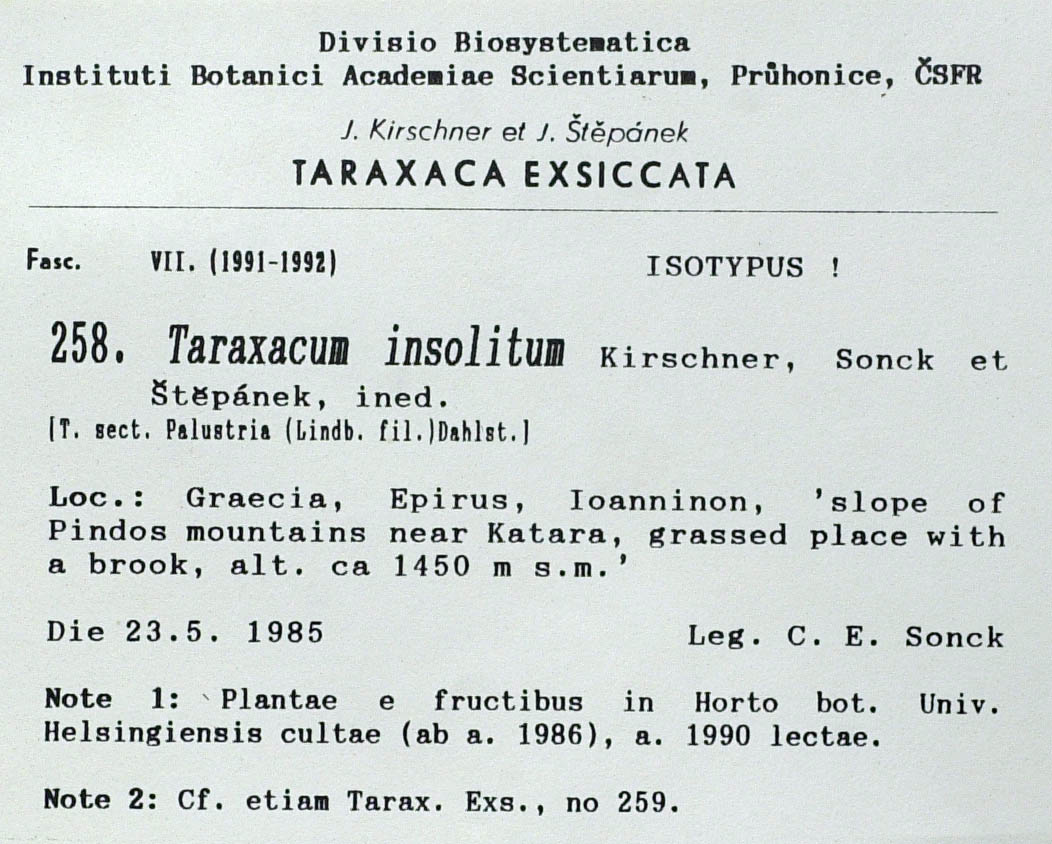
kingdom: Plantae
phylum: Tracheophyta
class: Magnoliopsida
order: Asterales
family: Asteraceae
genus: Taraxacum
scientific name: Taraxacum insolitum
